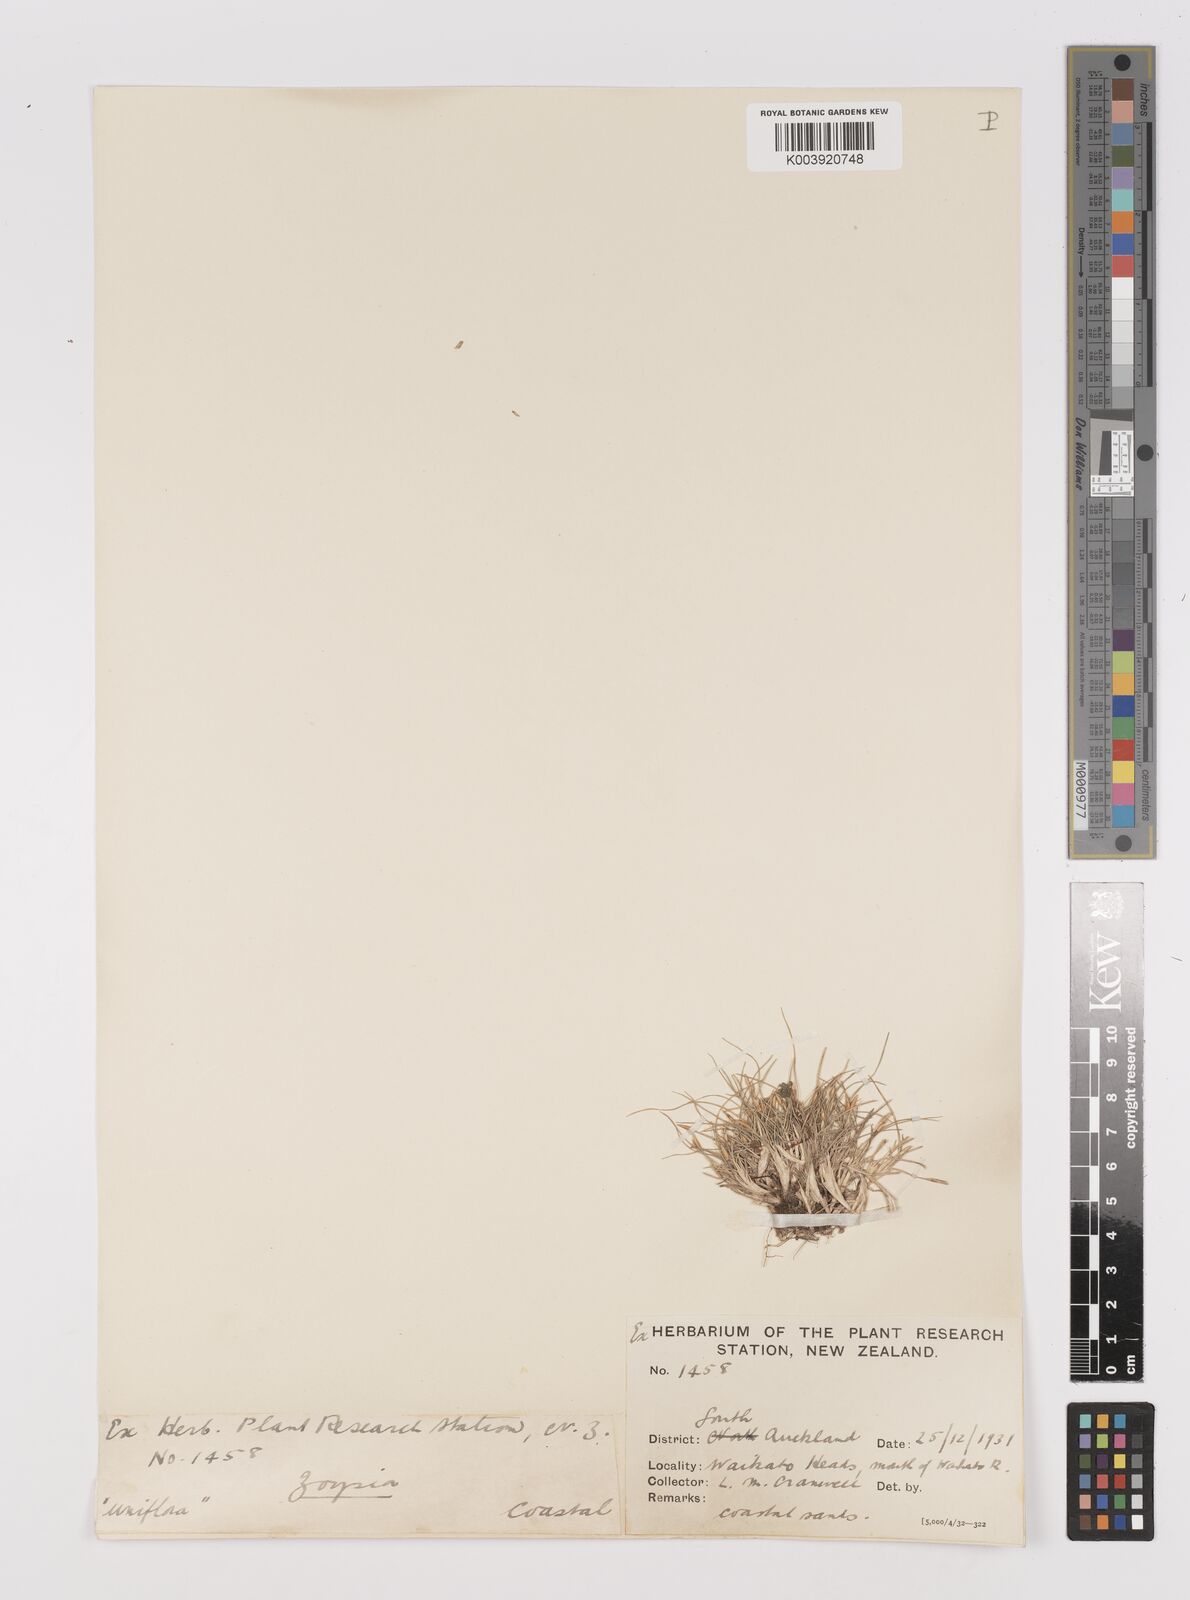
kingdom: Plantae
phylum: Tracheophyta
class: Liliopsida
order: Poales
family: Poaceae
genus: Zoysia
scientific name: Zoysia minima
